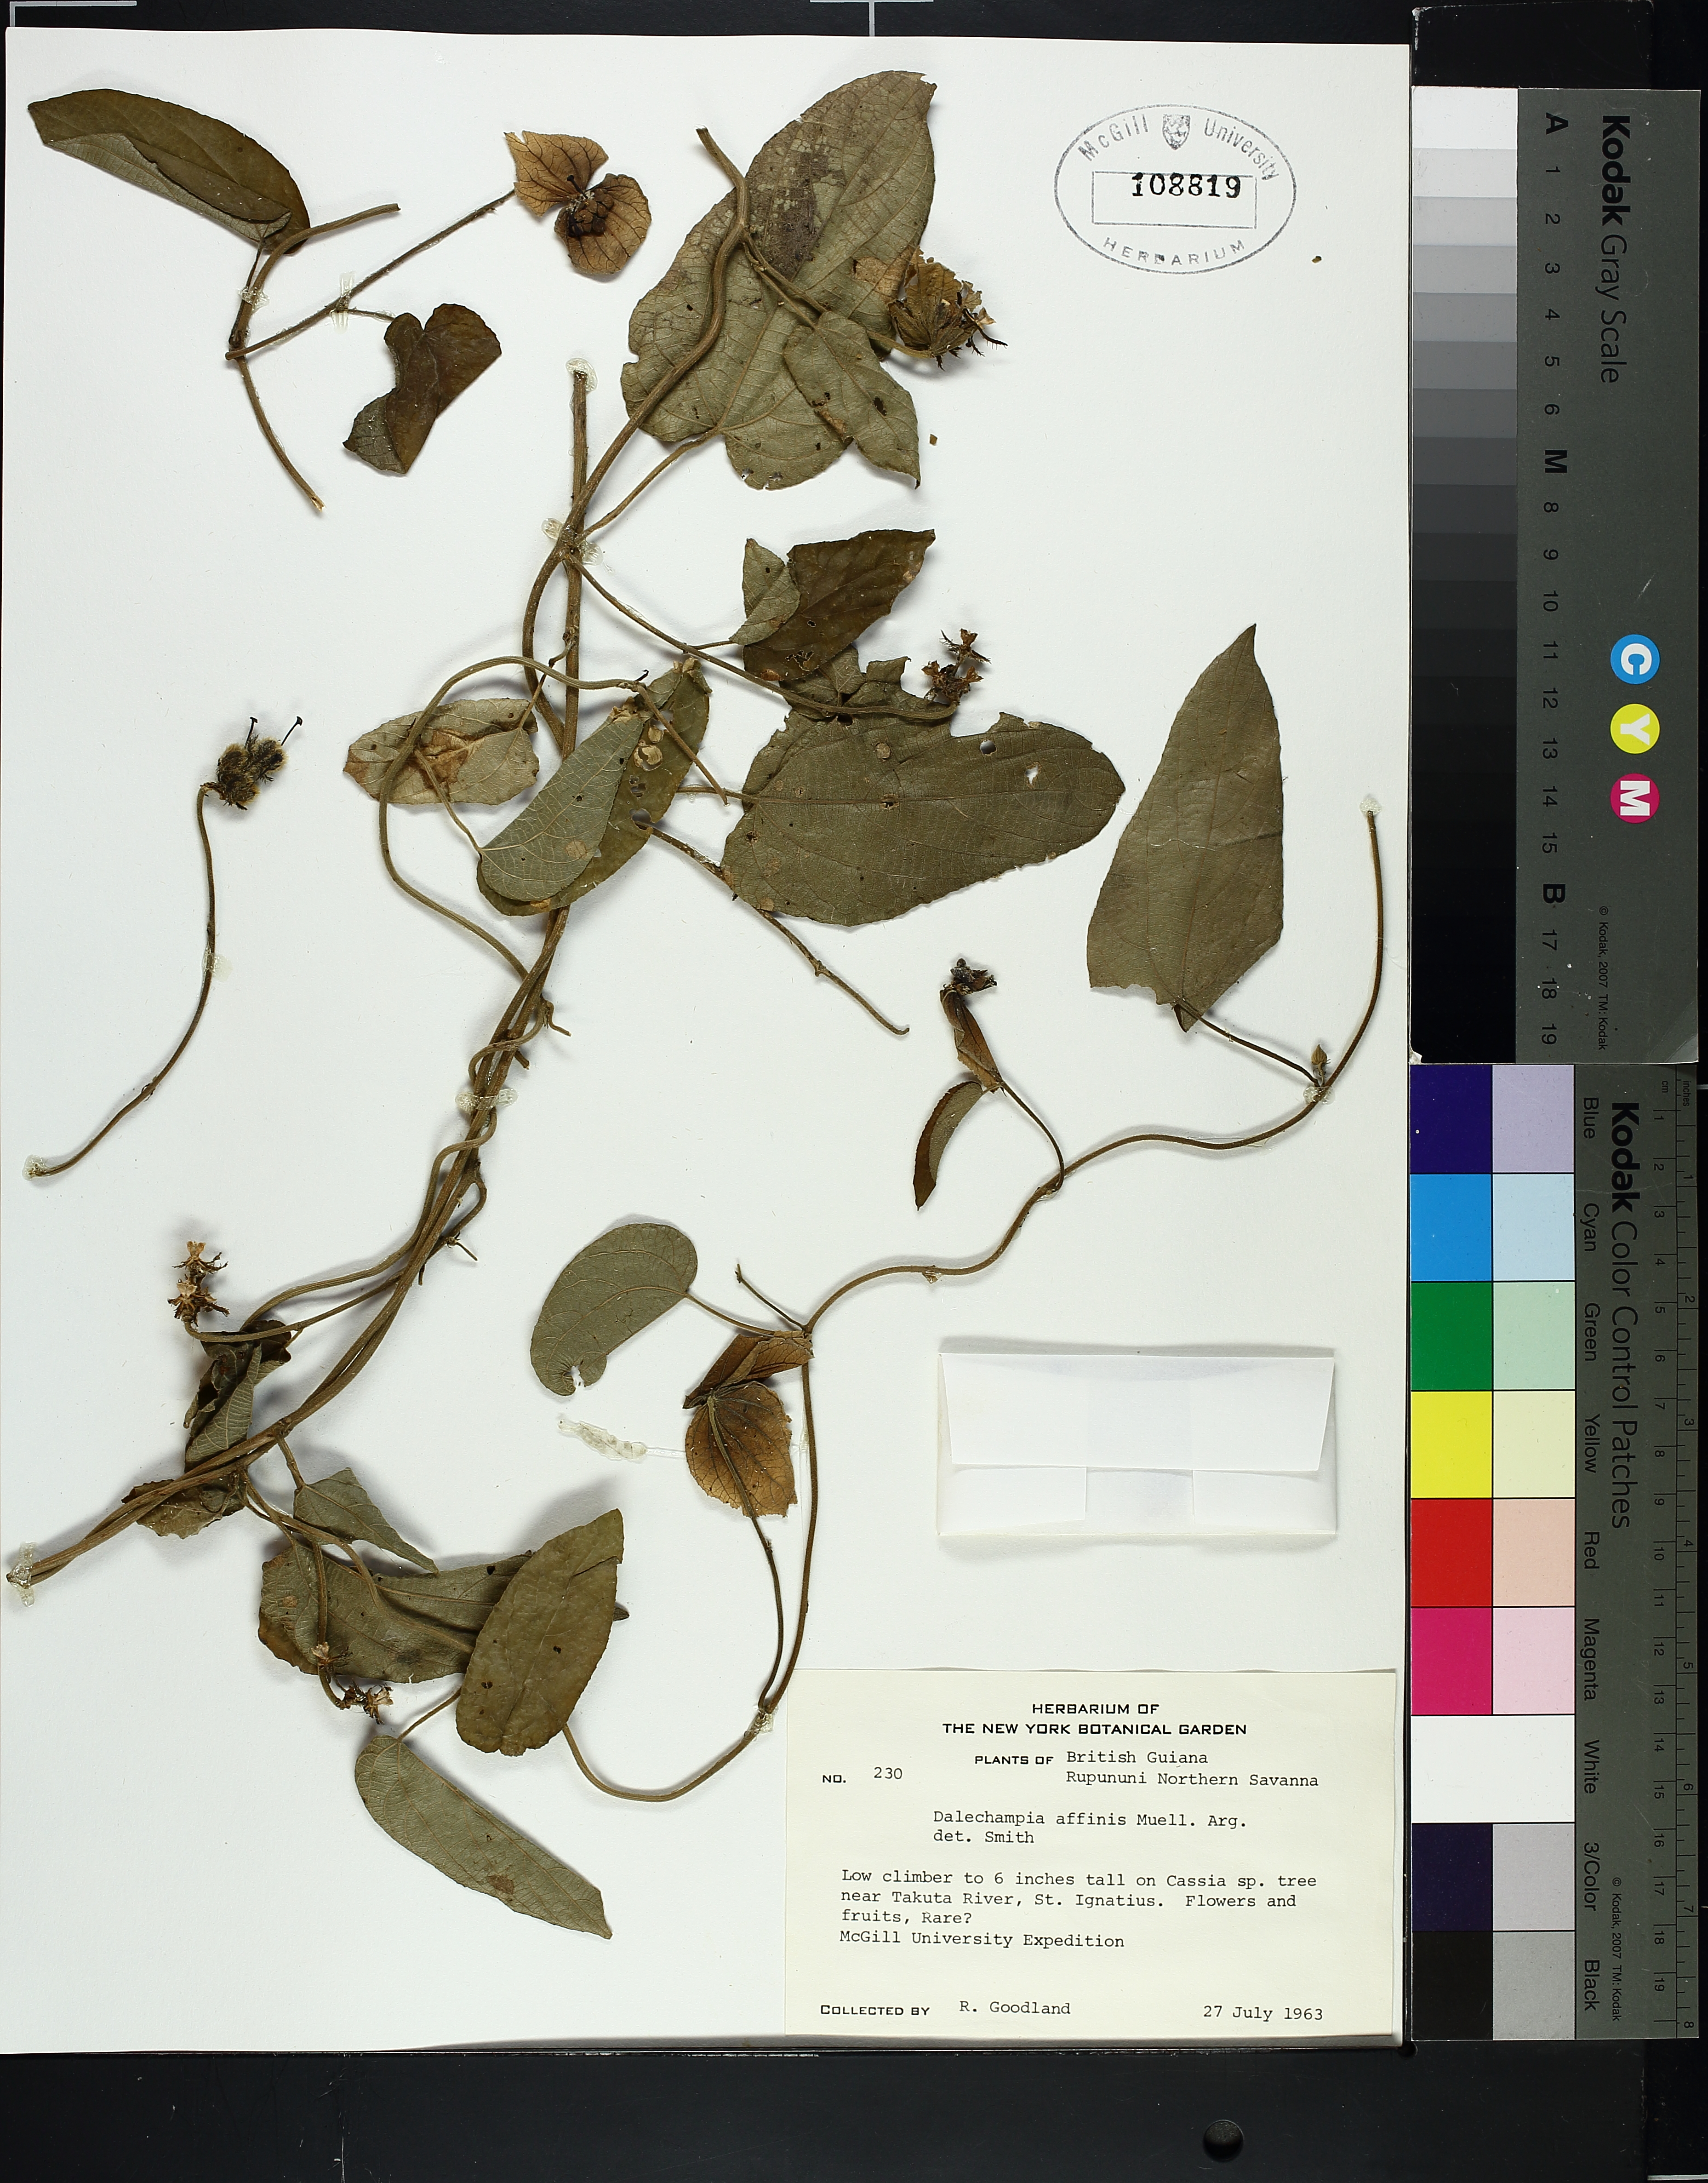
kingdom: Plantae
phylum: Tracheophyta
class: Magnoliopsida
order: Lamiales
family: Lamiaceae
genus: Mentha
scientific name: Mentha arvensis
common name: Corn mint
